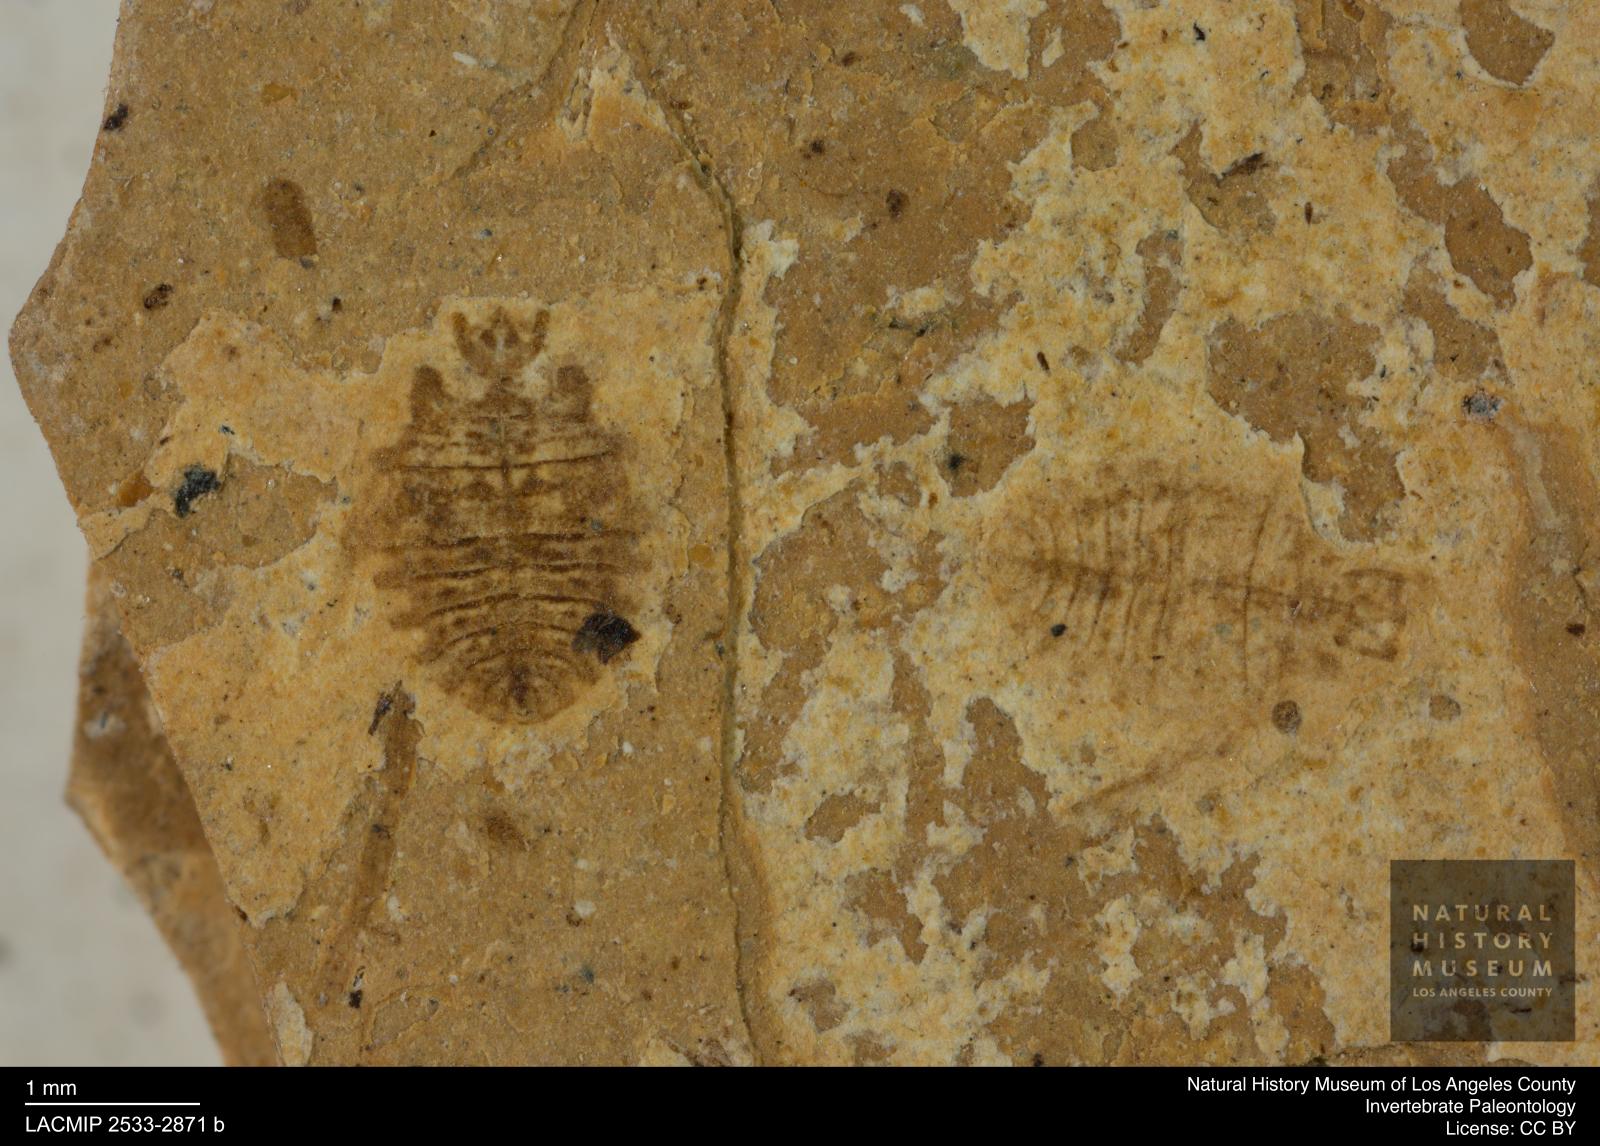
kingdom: Animalia
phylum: Arthropoda
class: Insecta
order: Hemiptera
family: Naucoridae
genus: Naucoris
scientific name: Naucoris rottensis
